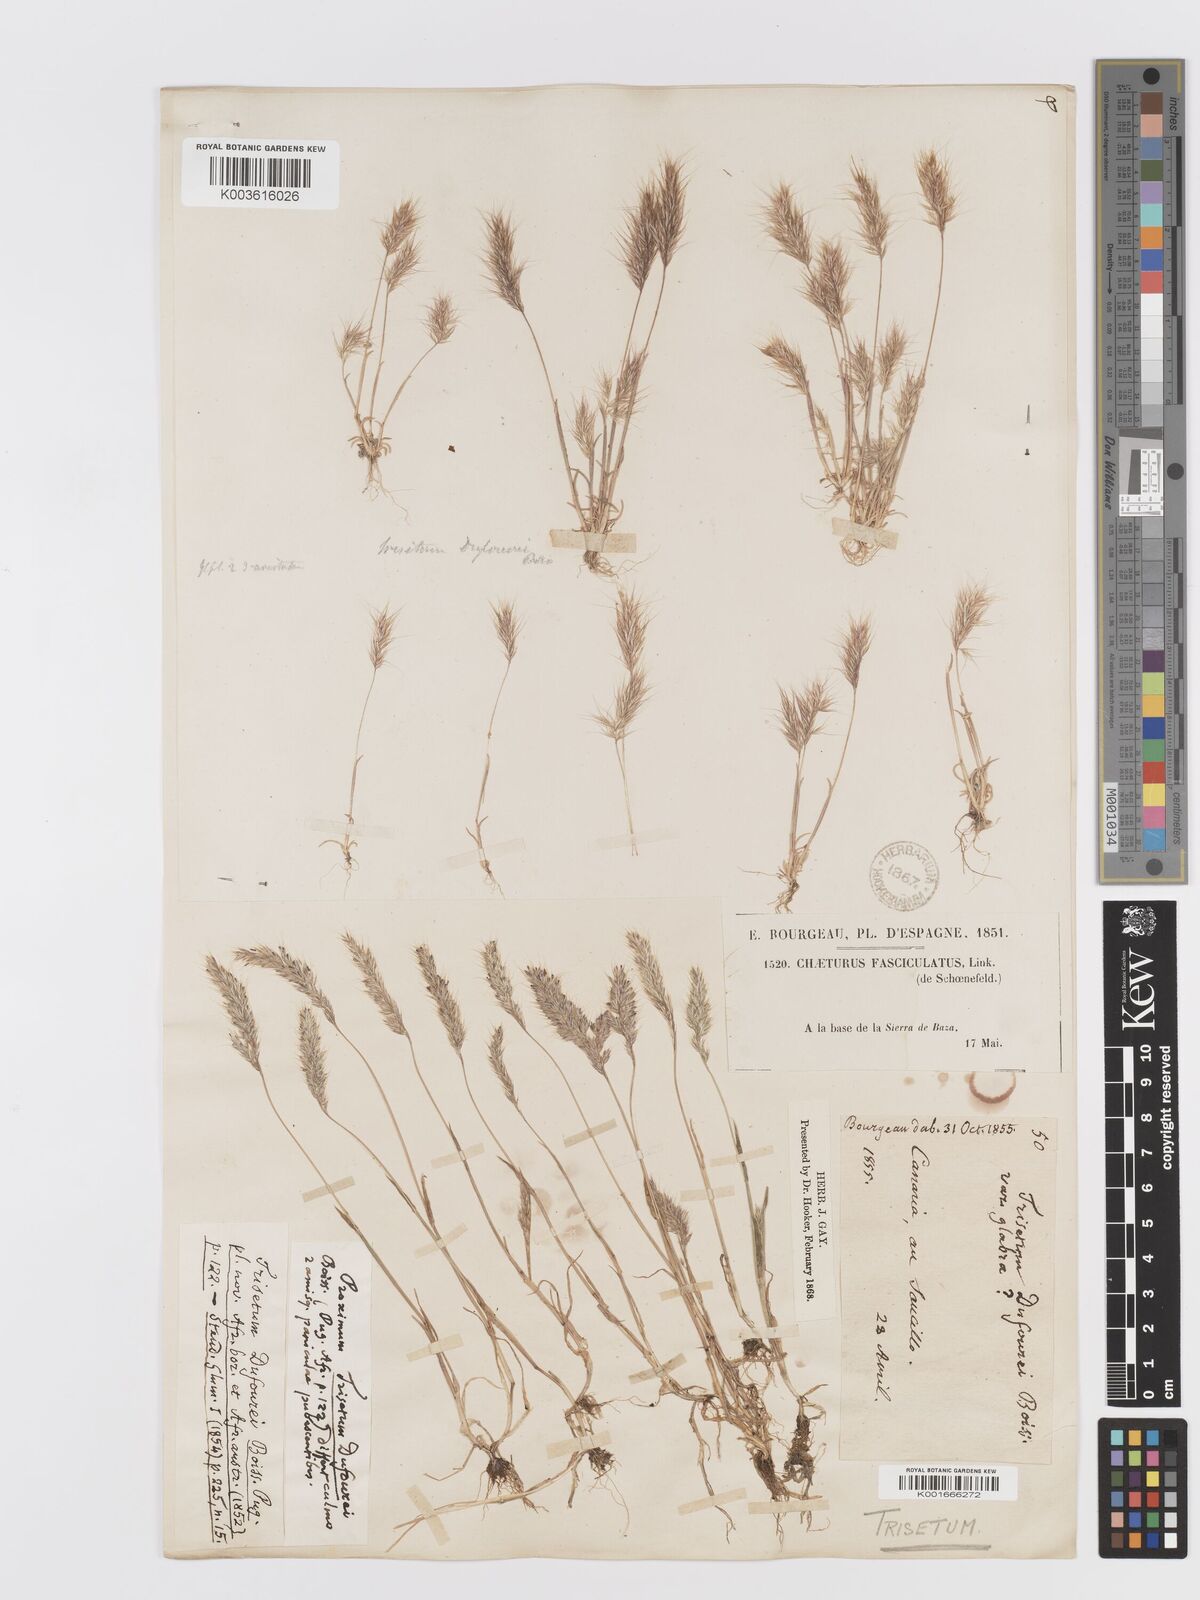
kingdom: Plantae
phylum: Tracheophyta
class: Liliopsida
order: Poales
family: Poaceae
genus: Trisetaria
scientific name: Trisetaria dufourei
